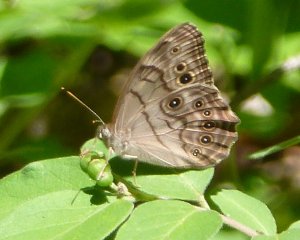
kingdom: Animalia
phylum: Arthropoda
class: Insecta
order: Lepidoptera
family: Nymphalidae
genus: Lethe
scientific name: Lethe anthedon
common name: Northern Pearly-Eye
